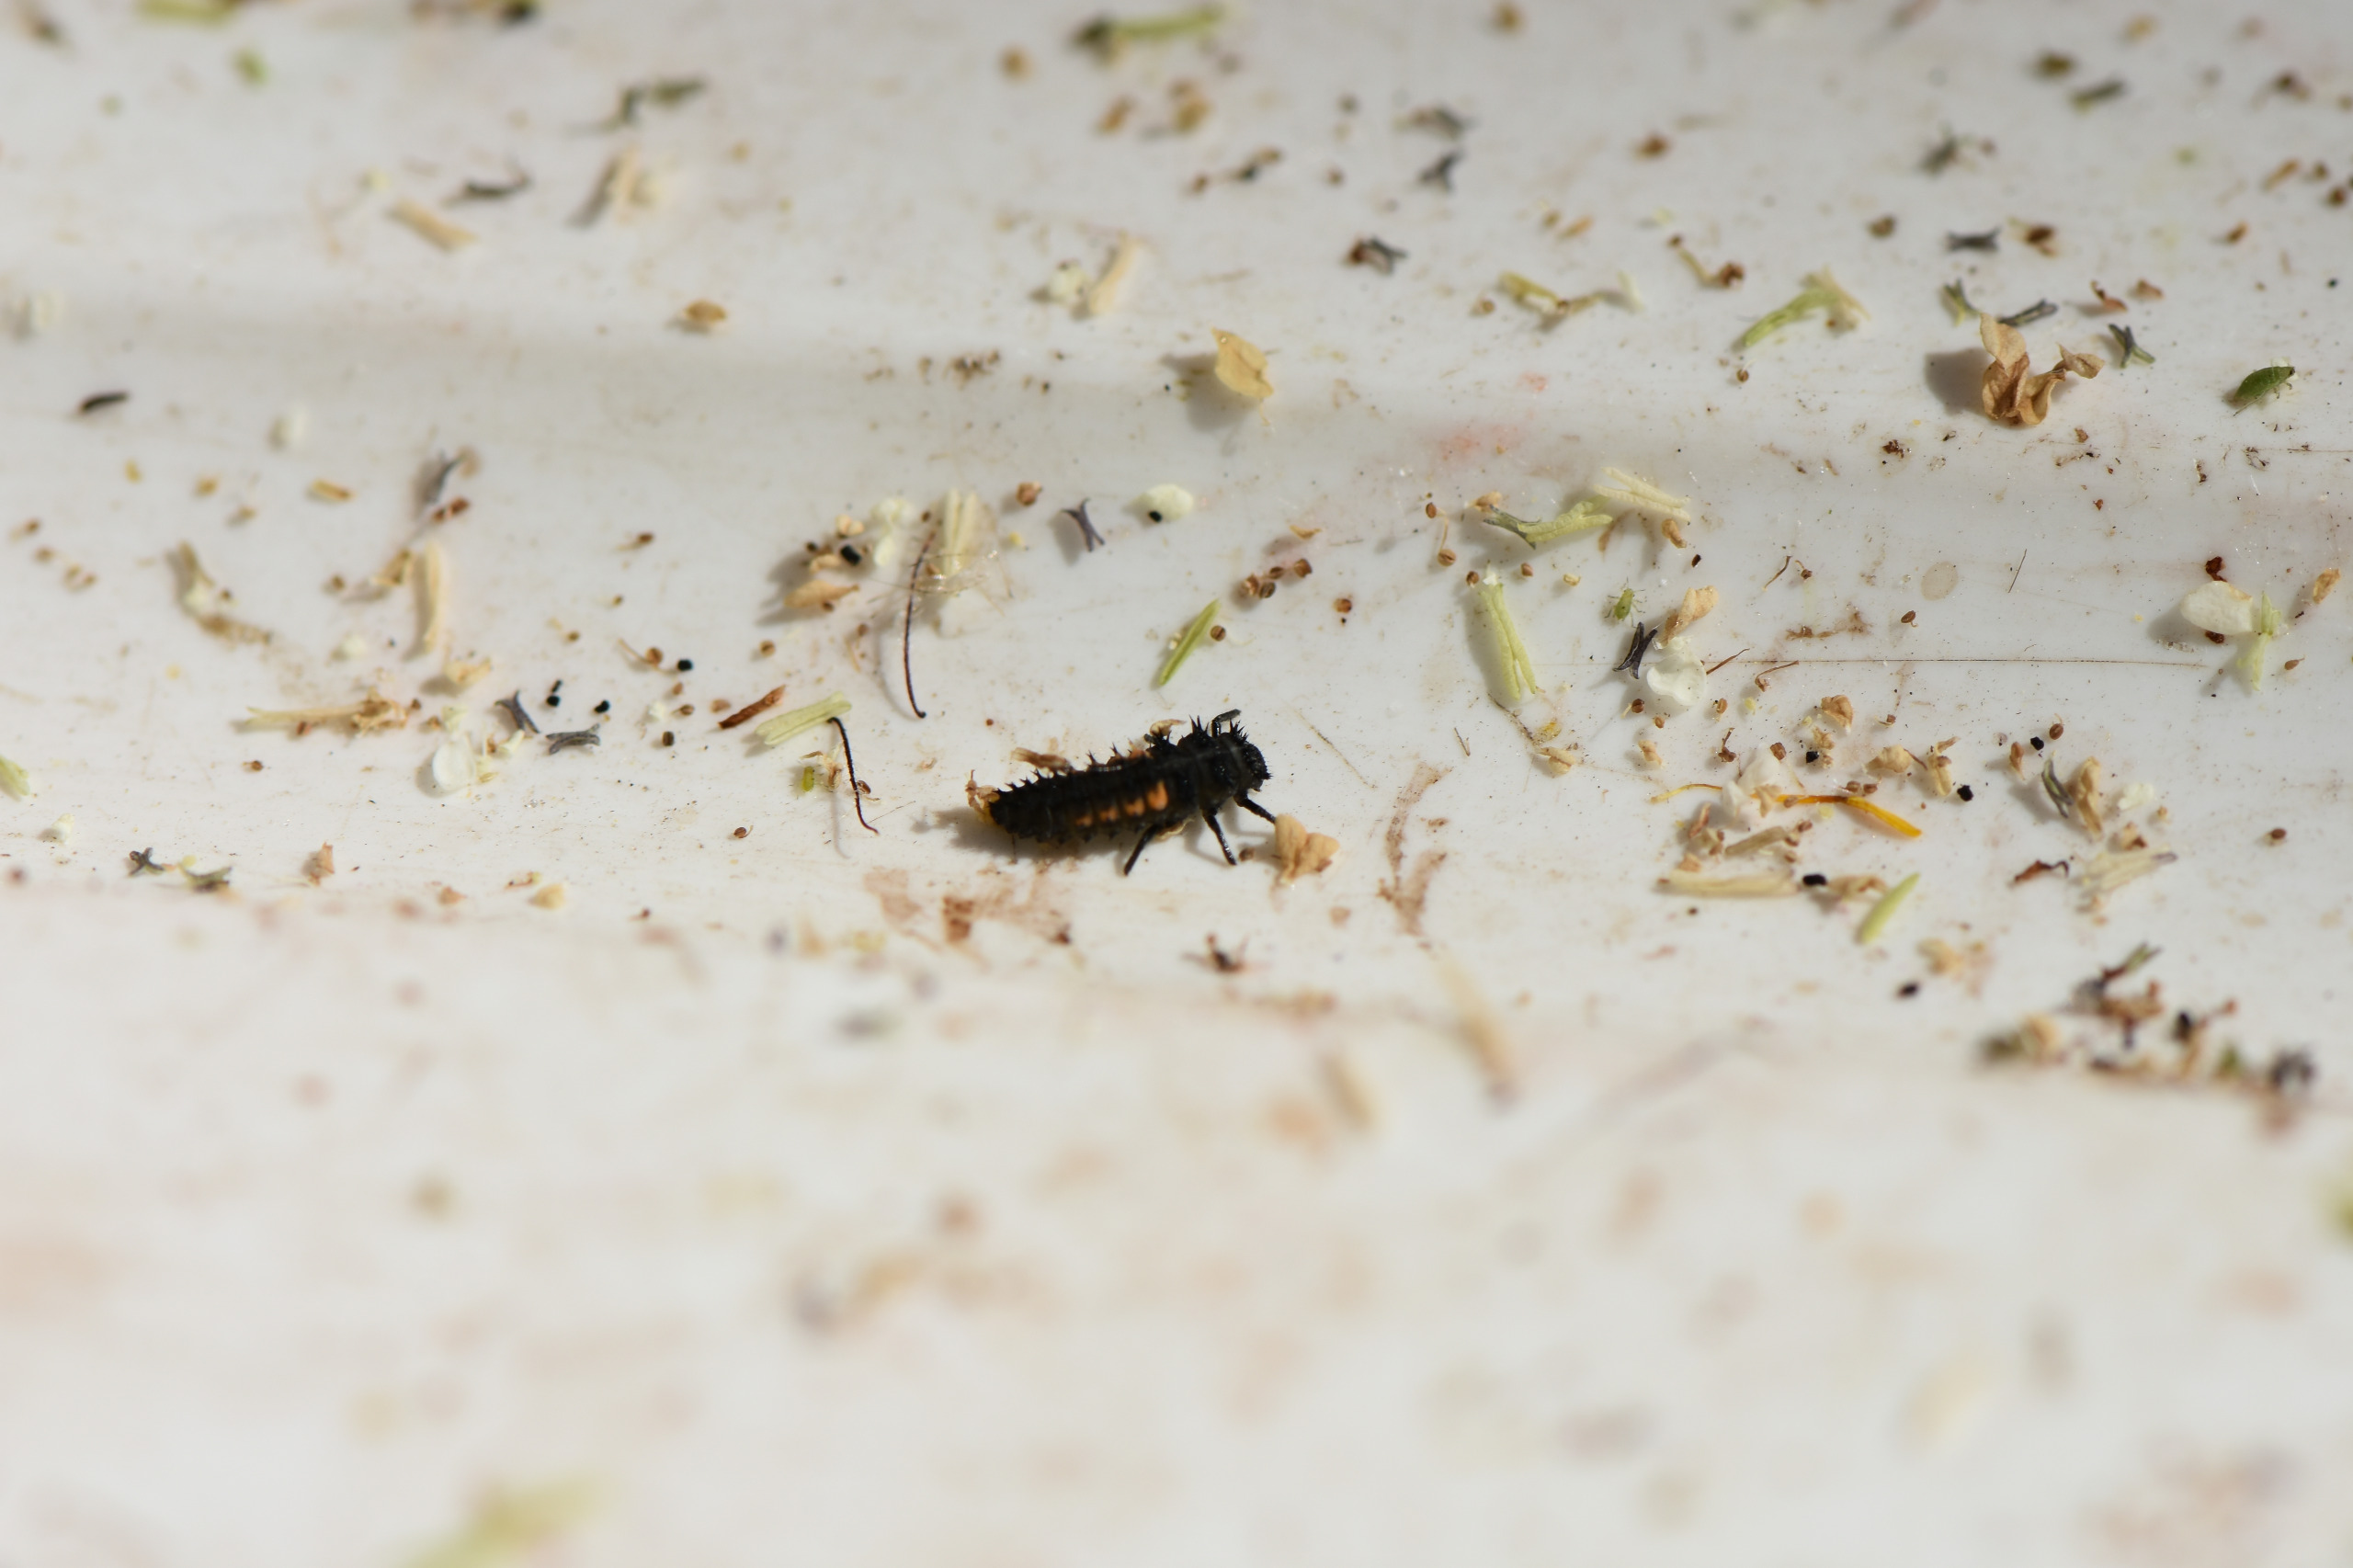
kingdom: Animalia
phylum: Arthropoda
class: Insecta
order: Coleoptera
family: Coccinellidae
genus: Harmonia
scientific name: Harmonia axyridis
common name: Harlekinmariehøne
